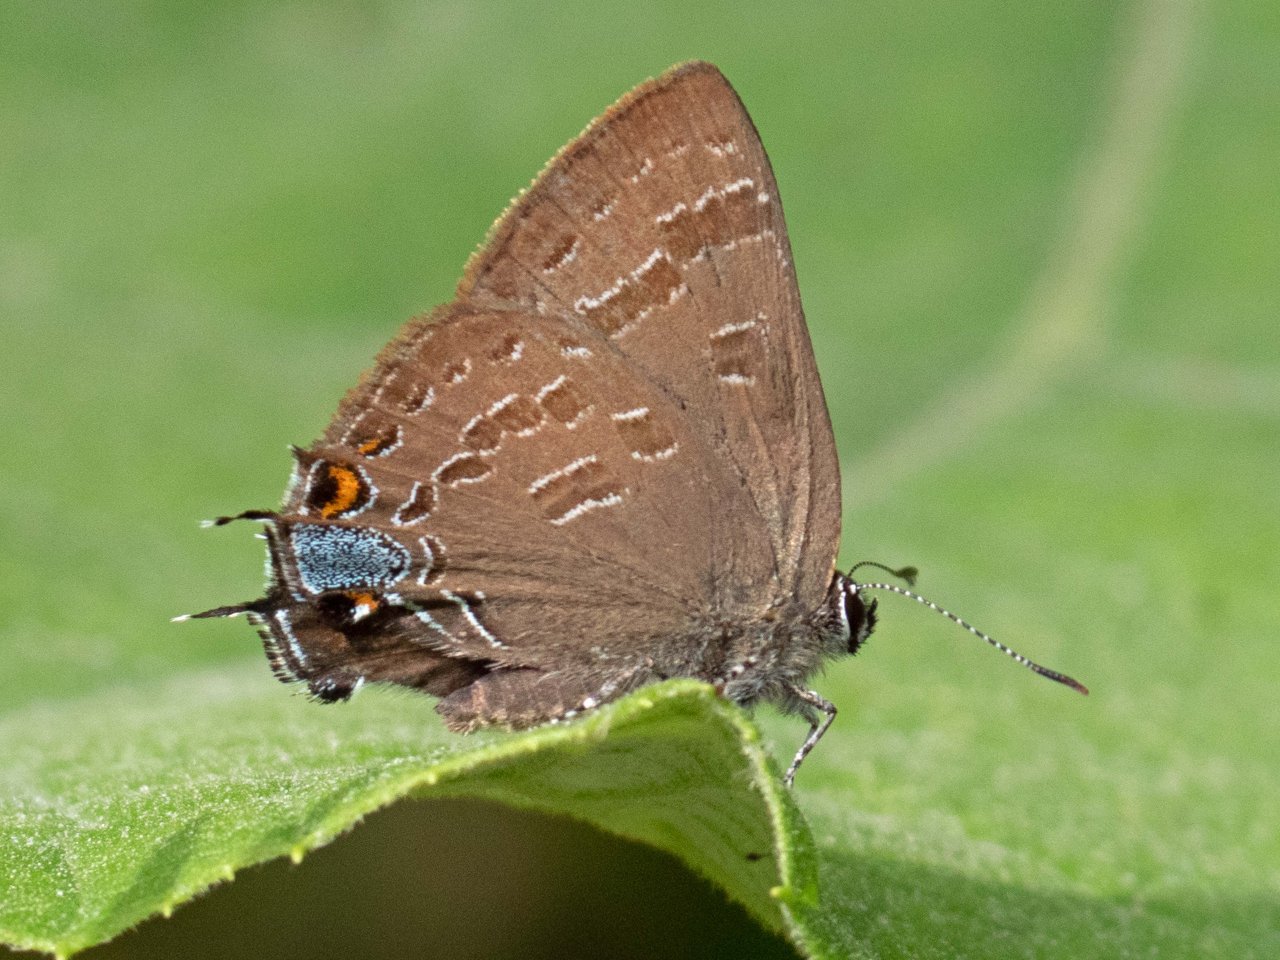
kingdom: Animalia
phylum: Arthropoda
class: Insecta
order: Lepidoptera
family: Lycaenidae
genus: Strymon
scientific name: Strymon caryaevorus
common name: Hickory Hairstreak
